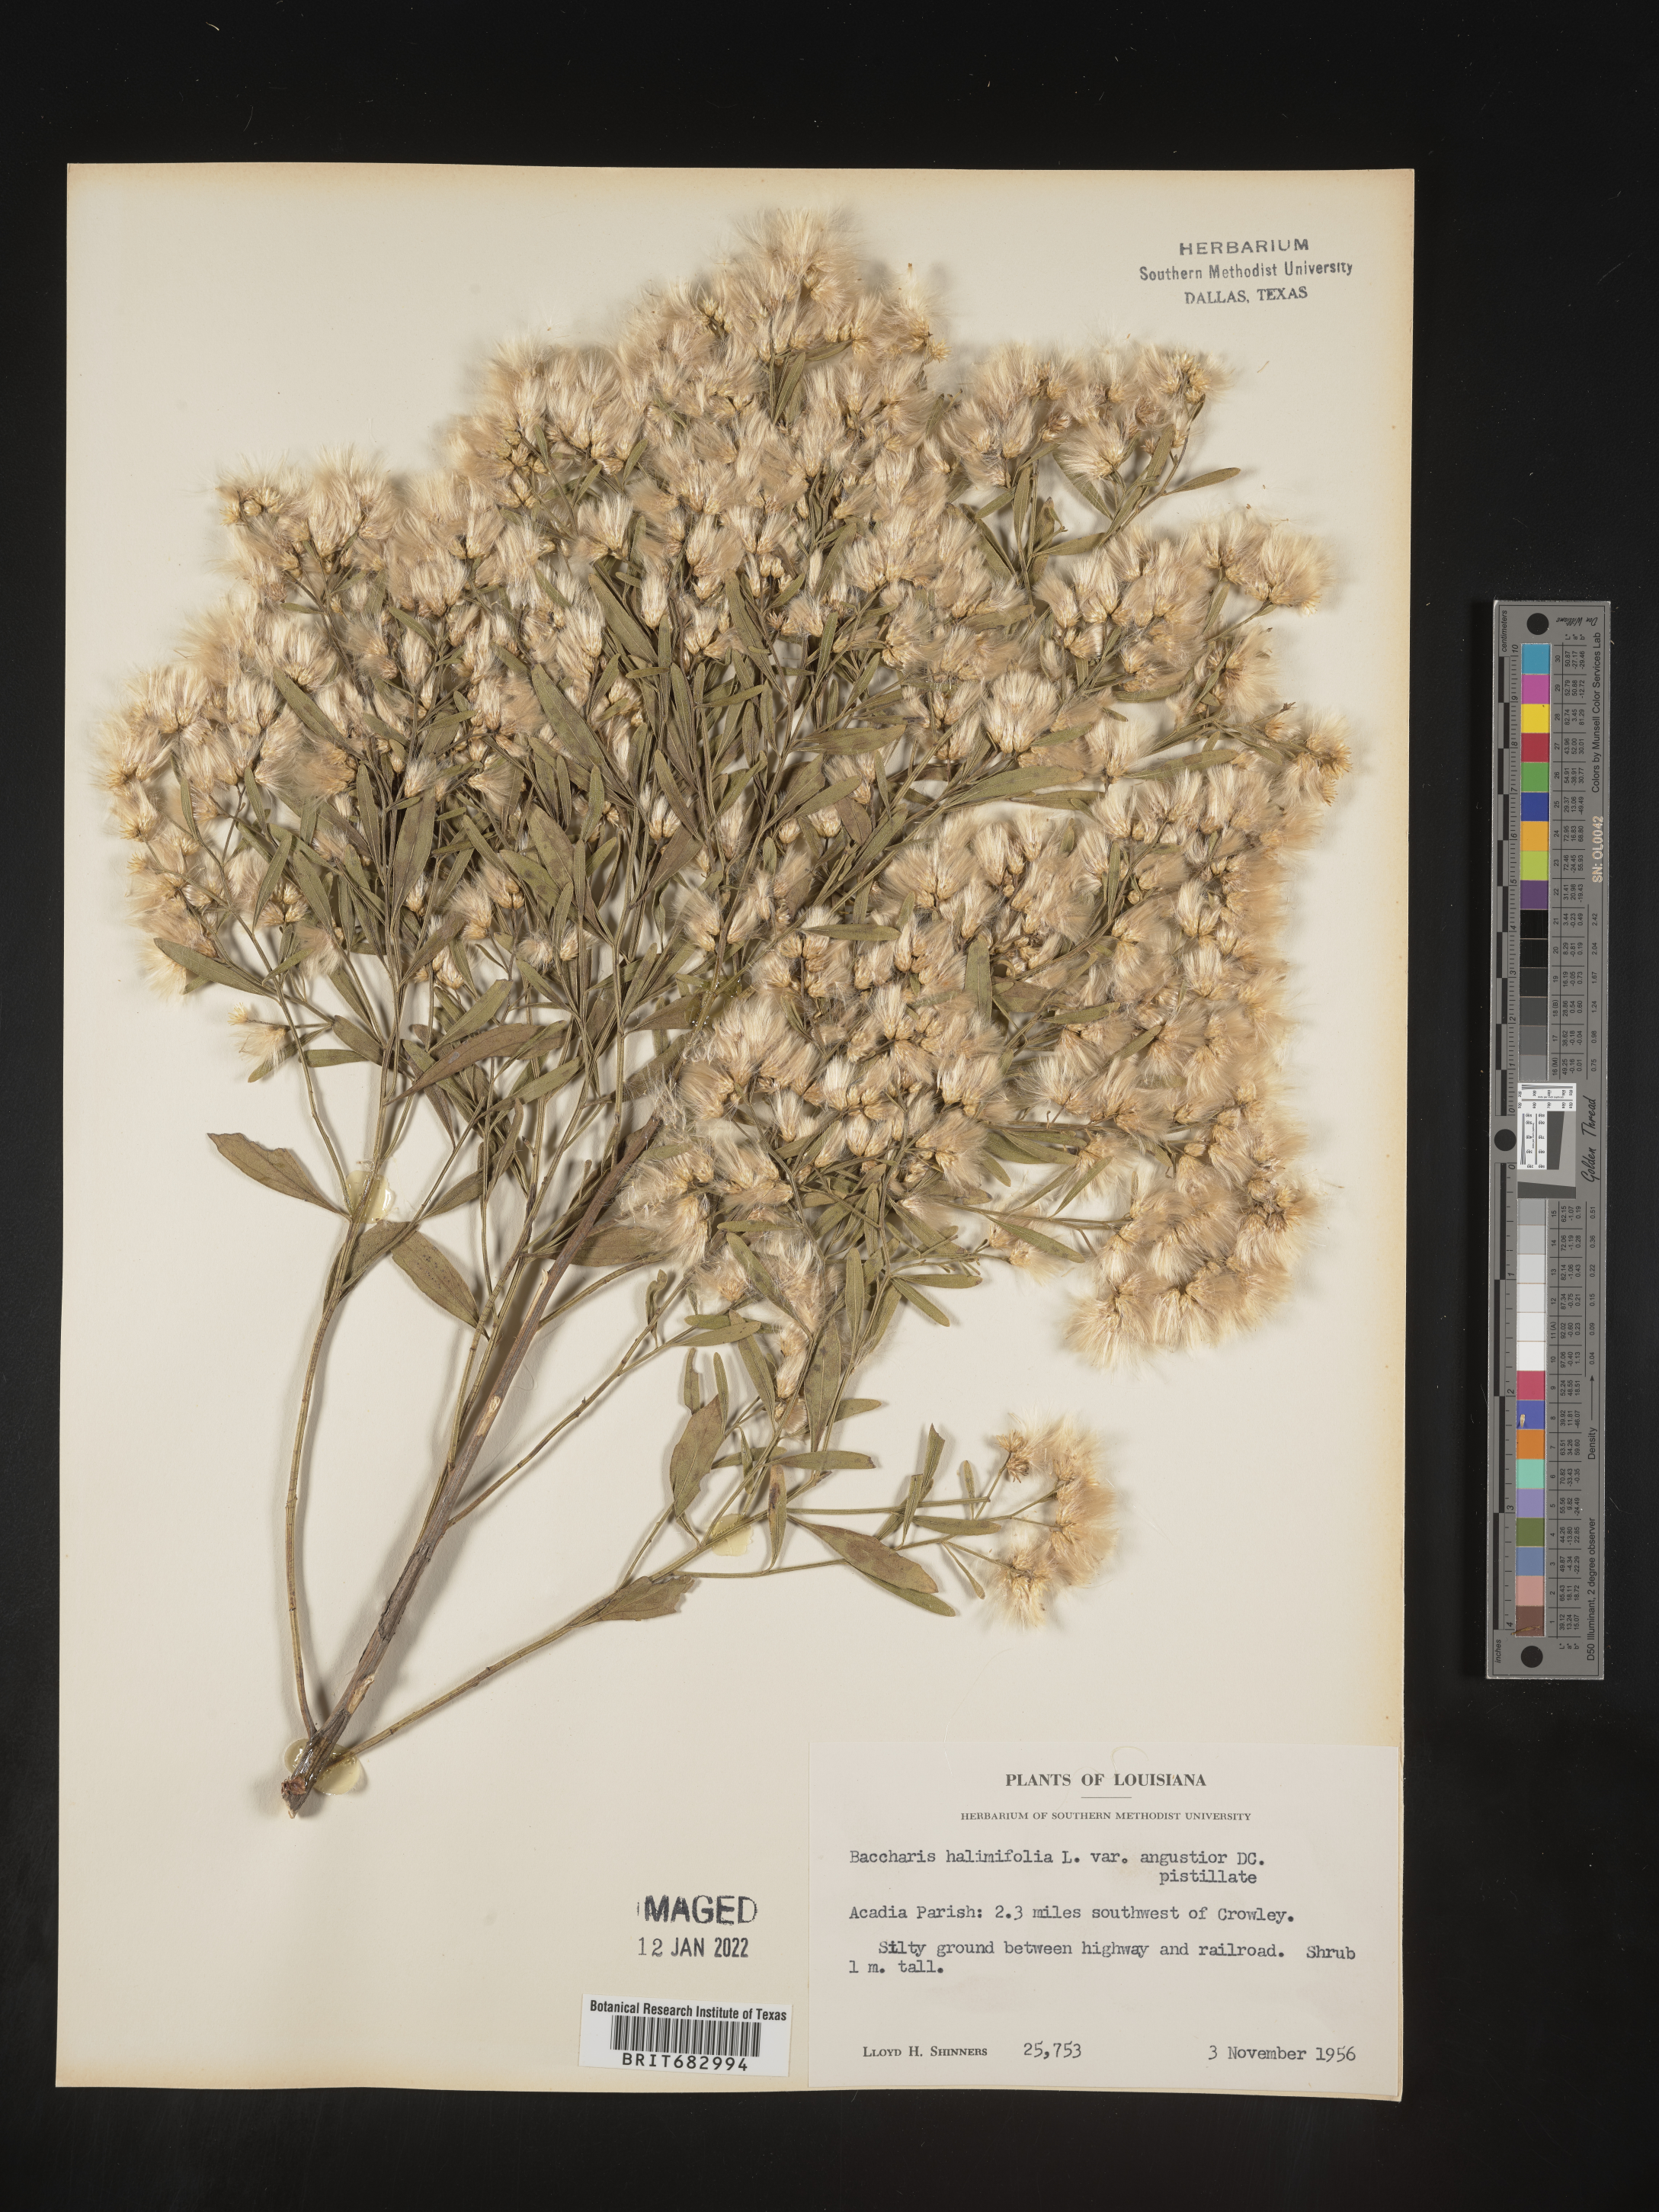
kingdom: Plantae
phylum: Tracheophyta
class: Magnoliopsida
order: Asterales
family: Asteraceae
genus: Nidorella
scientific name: Nidorella ivifolia
